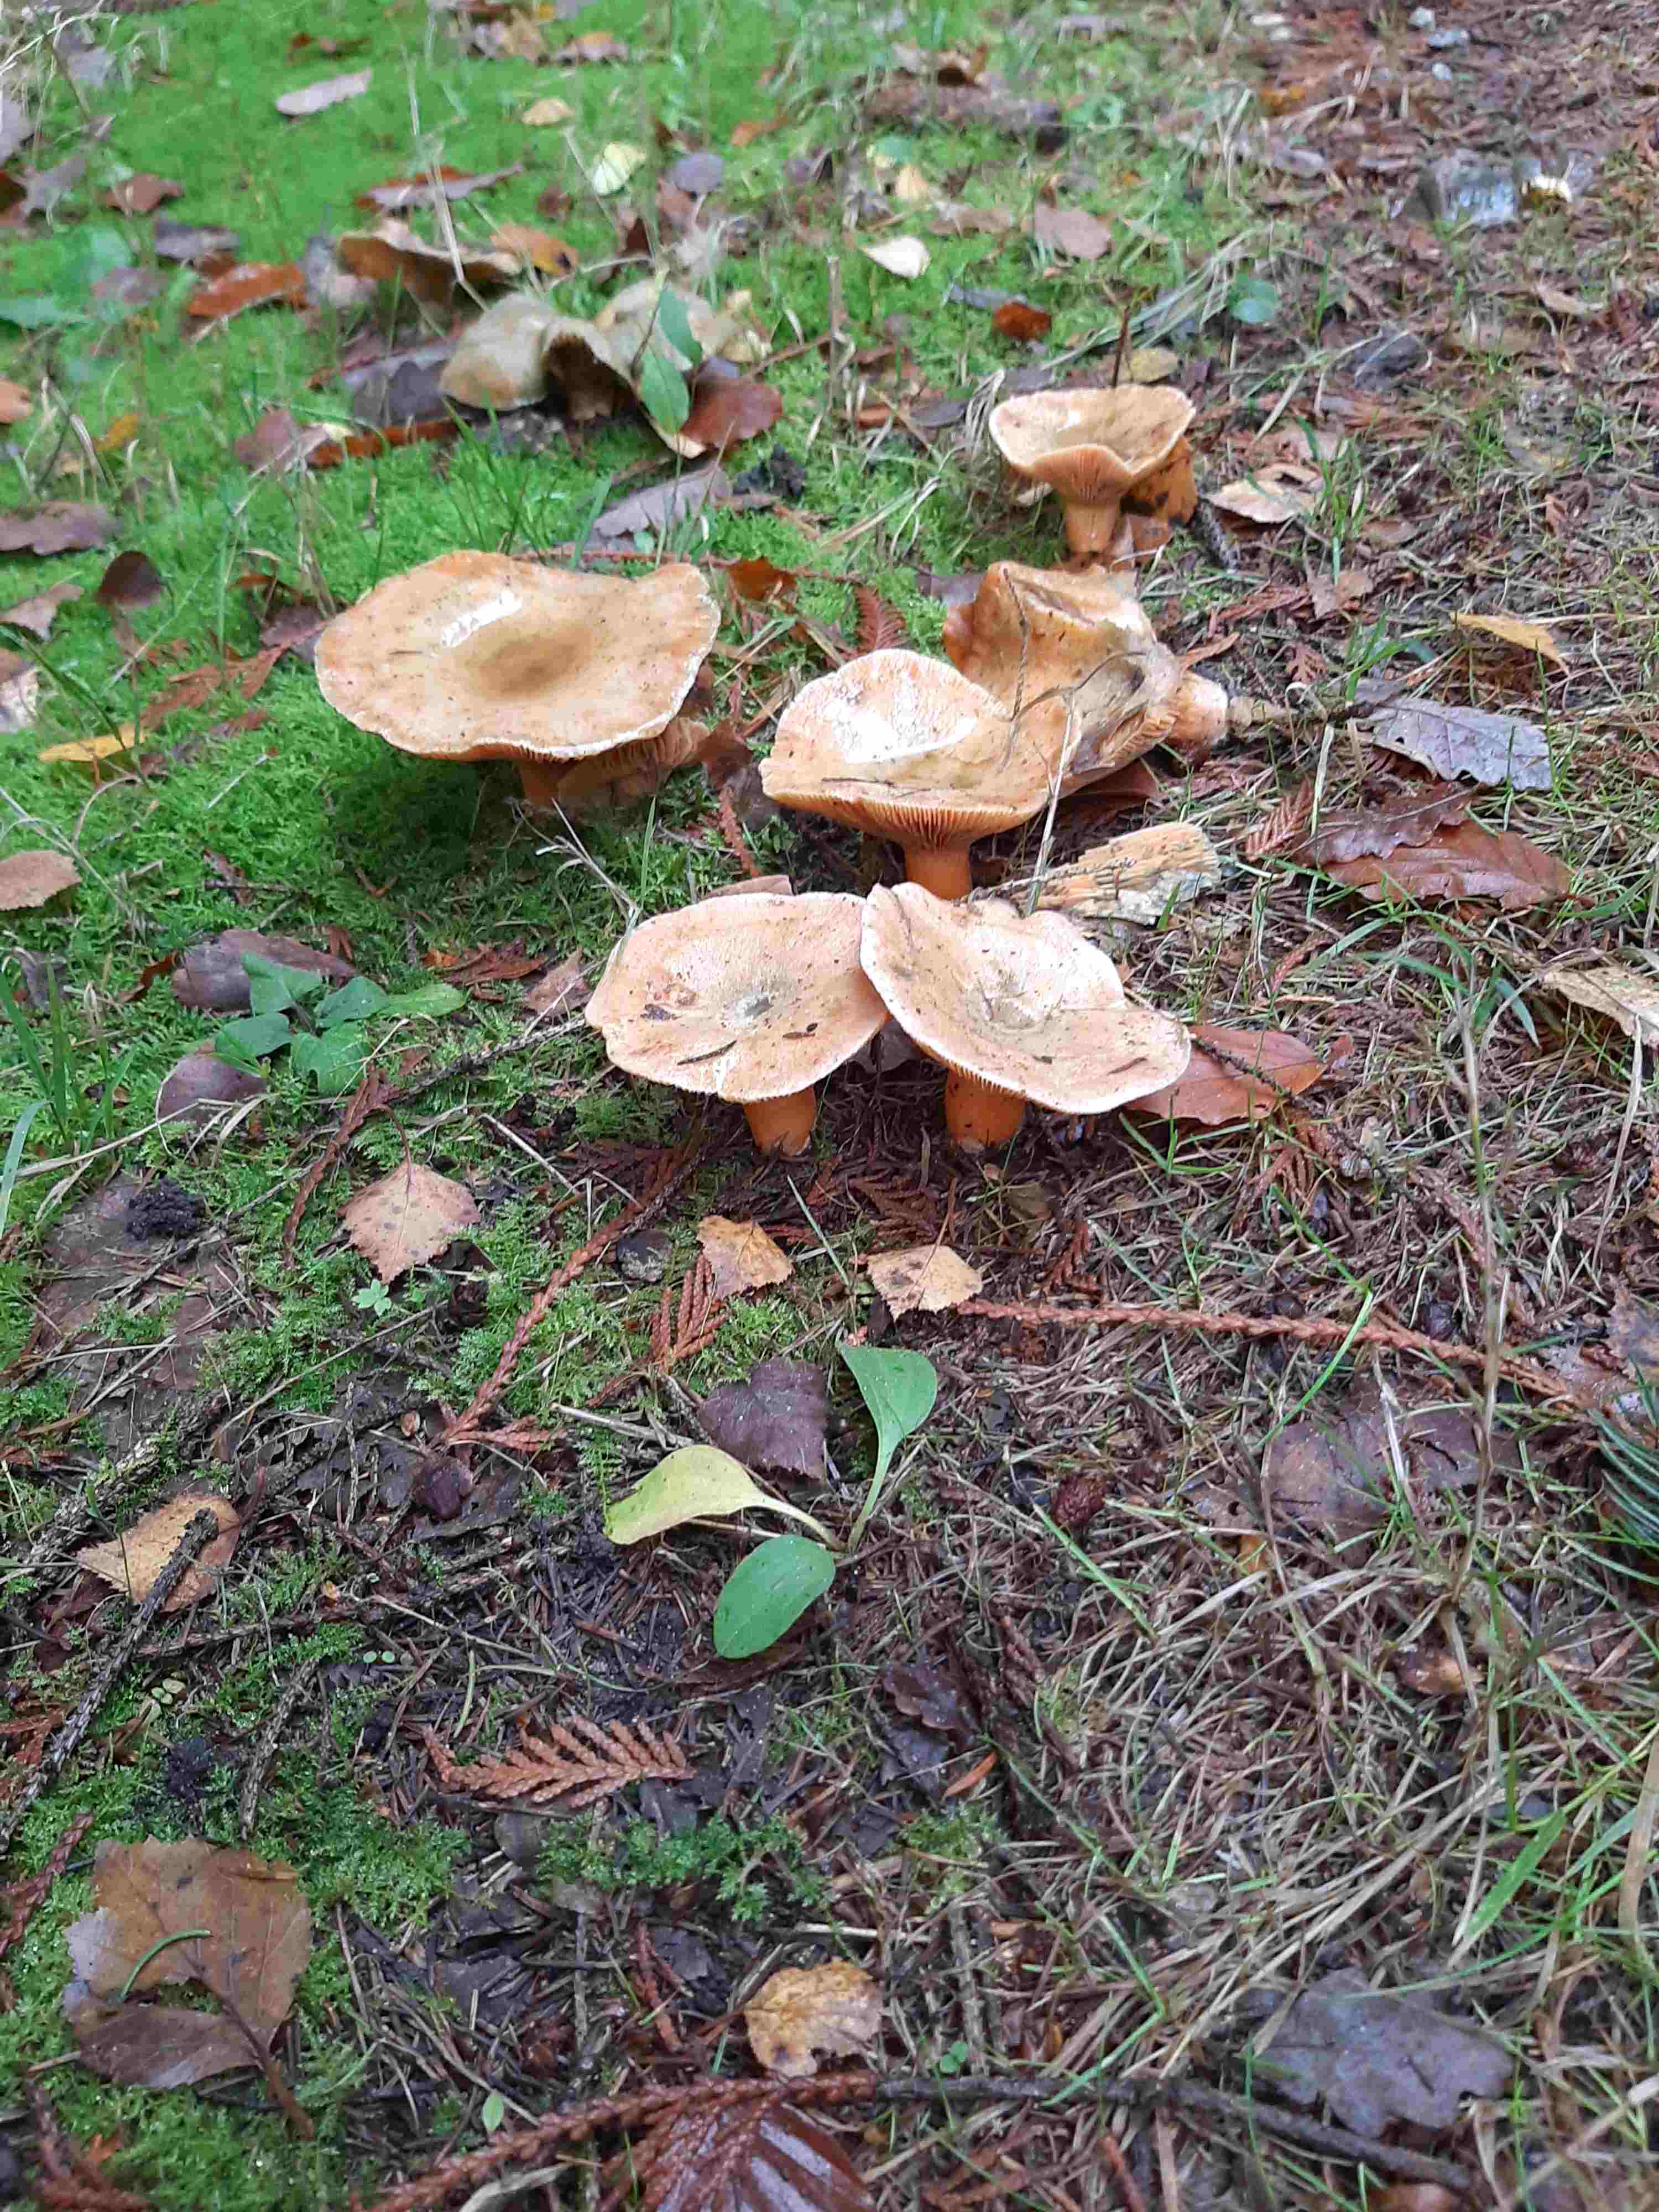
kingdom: Fungi
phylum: Basidiomycota
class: Agaricomycetes
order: Russulales
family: Russulaceae
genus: Lactarius
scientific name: Lactarius deterrimus
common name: gran-mælkehat
